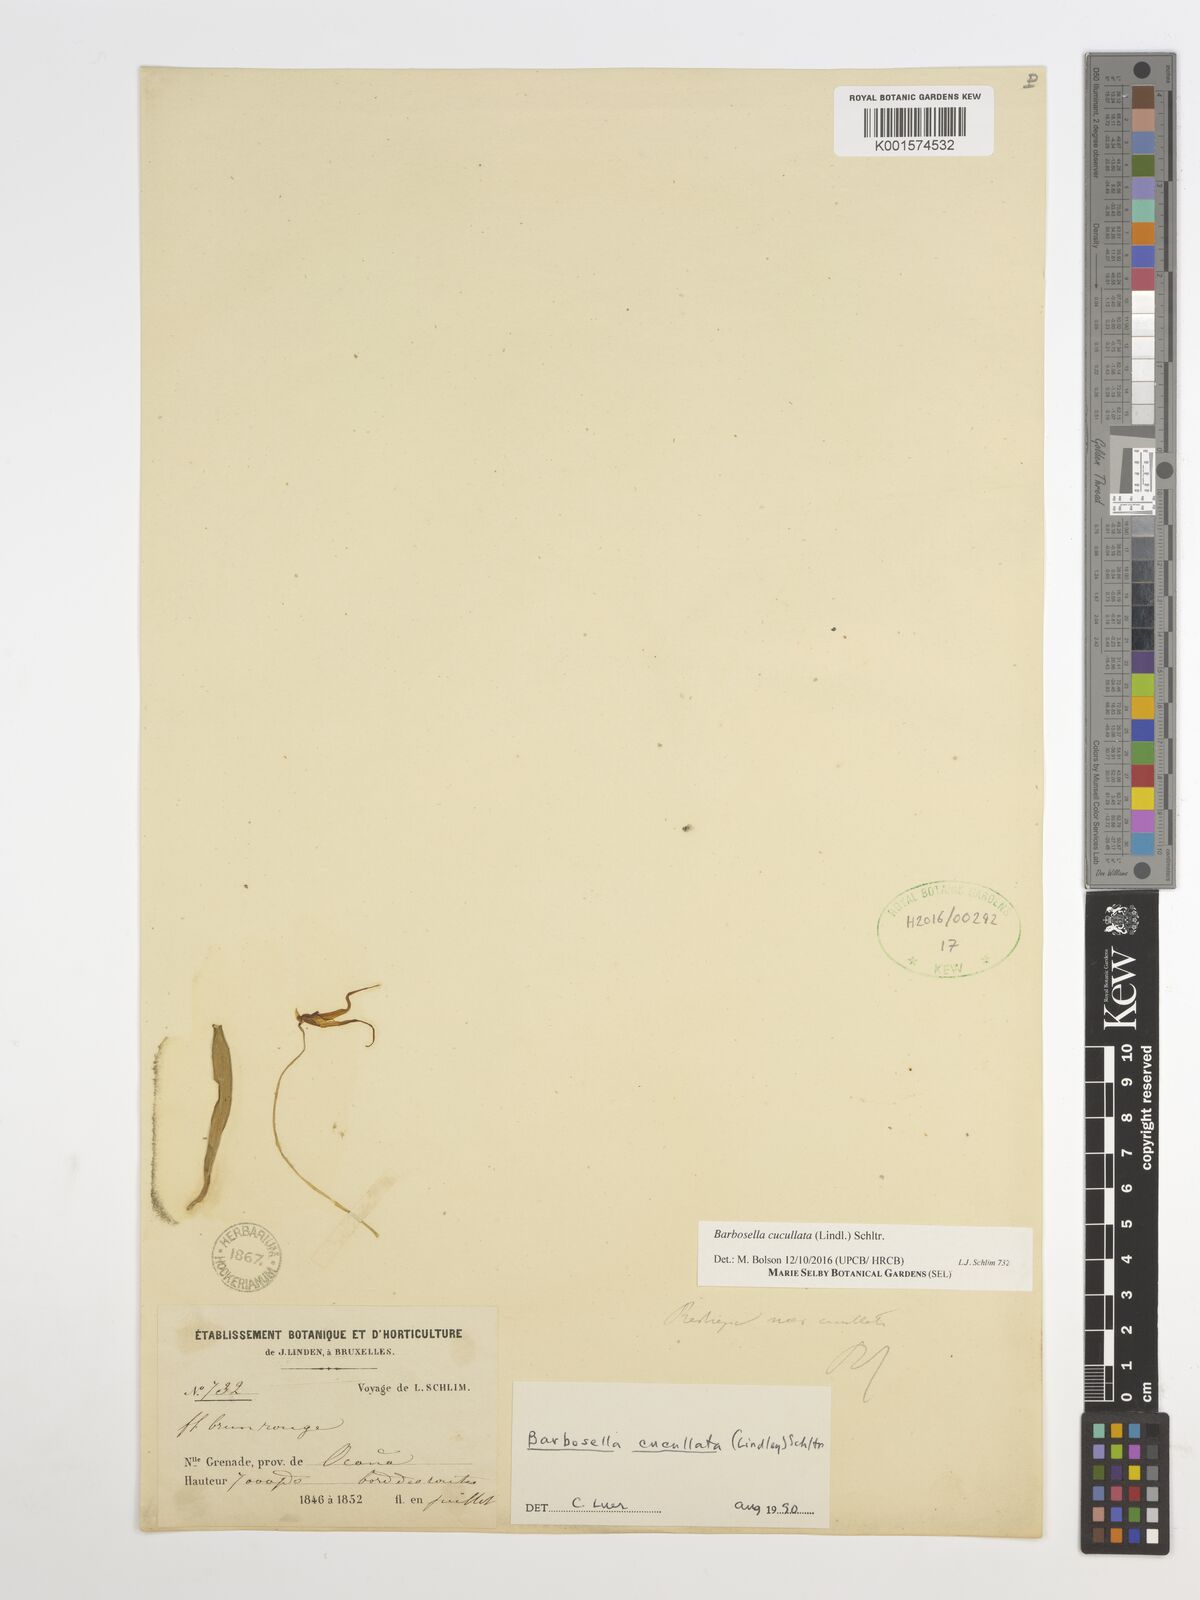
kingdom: Plantae
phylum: Tracheophyta
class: Liliopsida
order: Asparagales
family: Orchidaceae
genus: Barbosella
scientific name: Barbosella cucullata
